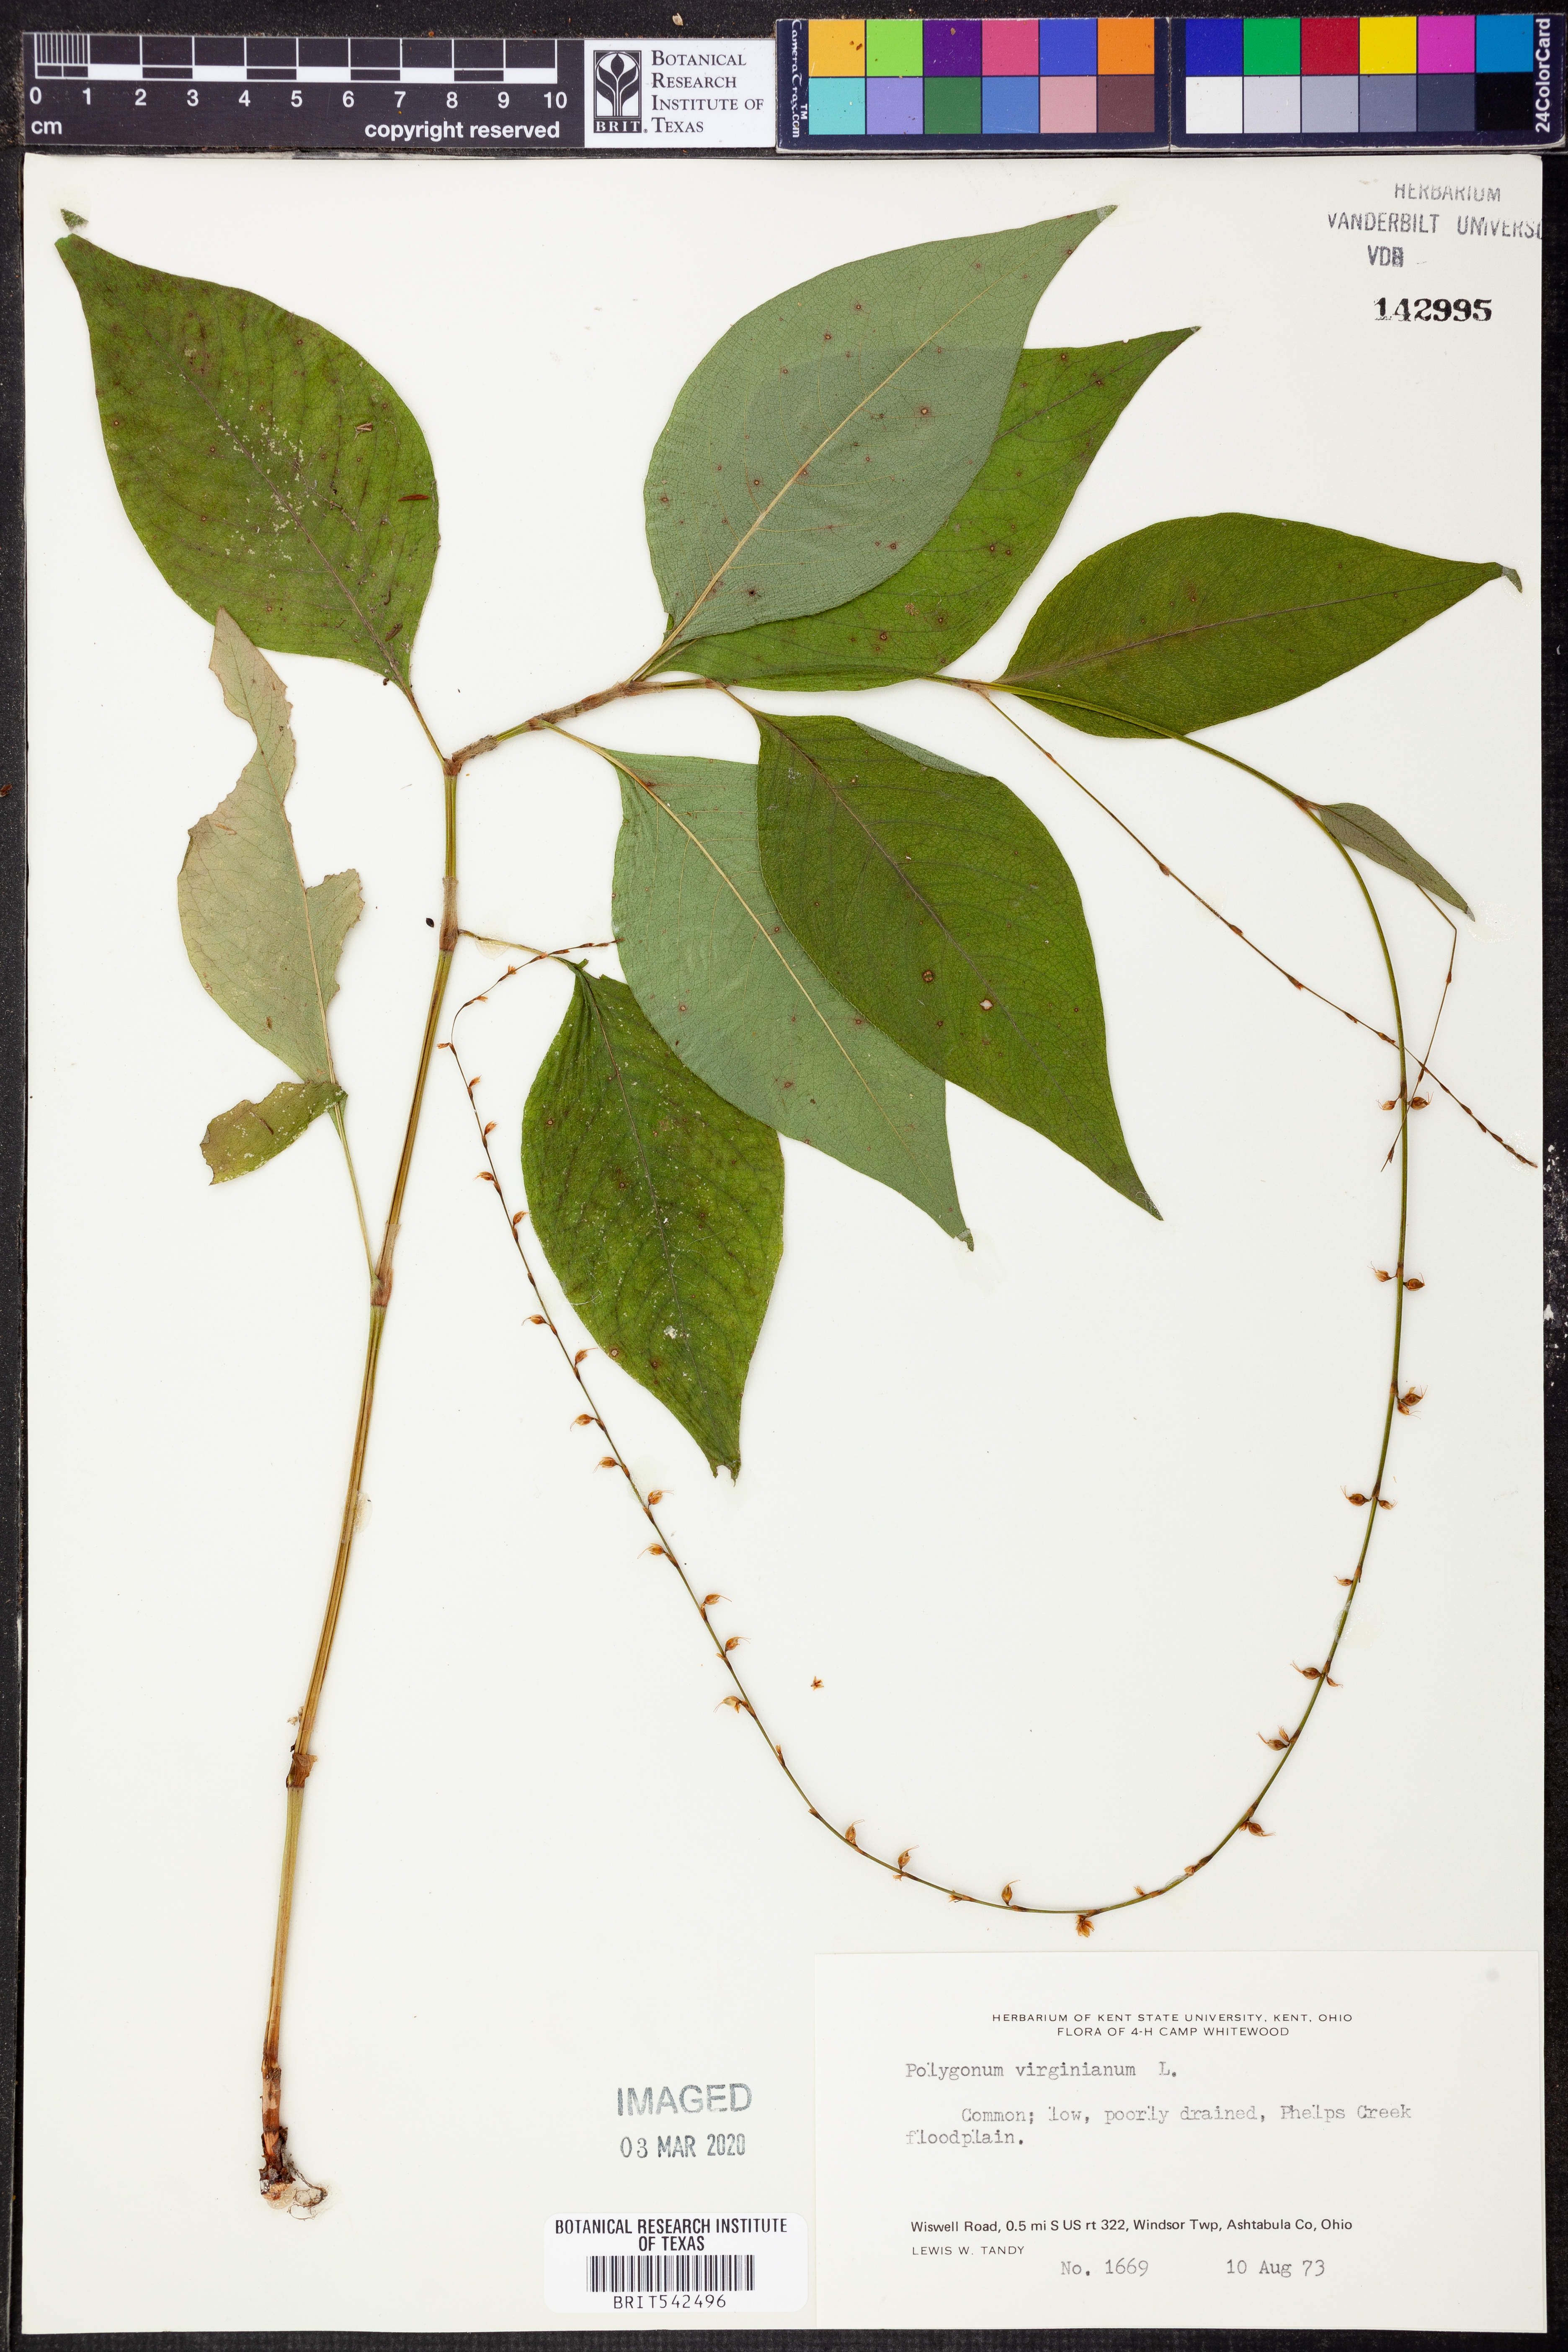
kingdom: Plantae
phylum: Tracheophyta
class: Magnoliopsida
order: Caryophyllales
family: Polygonaceae
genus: Persicaria
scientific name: Persicaria virginiana
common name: Jumpseed
